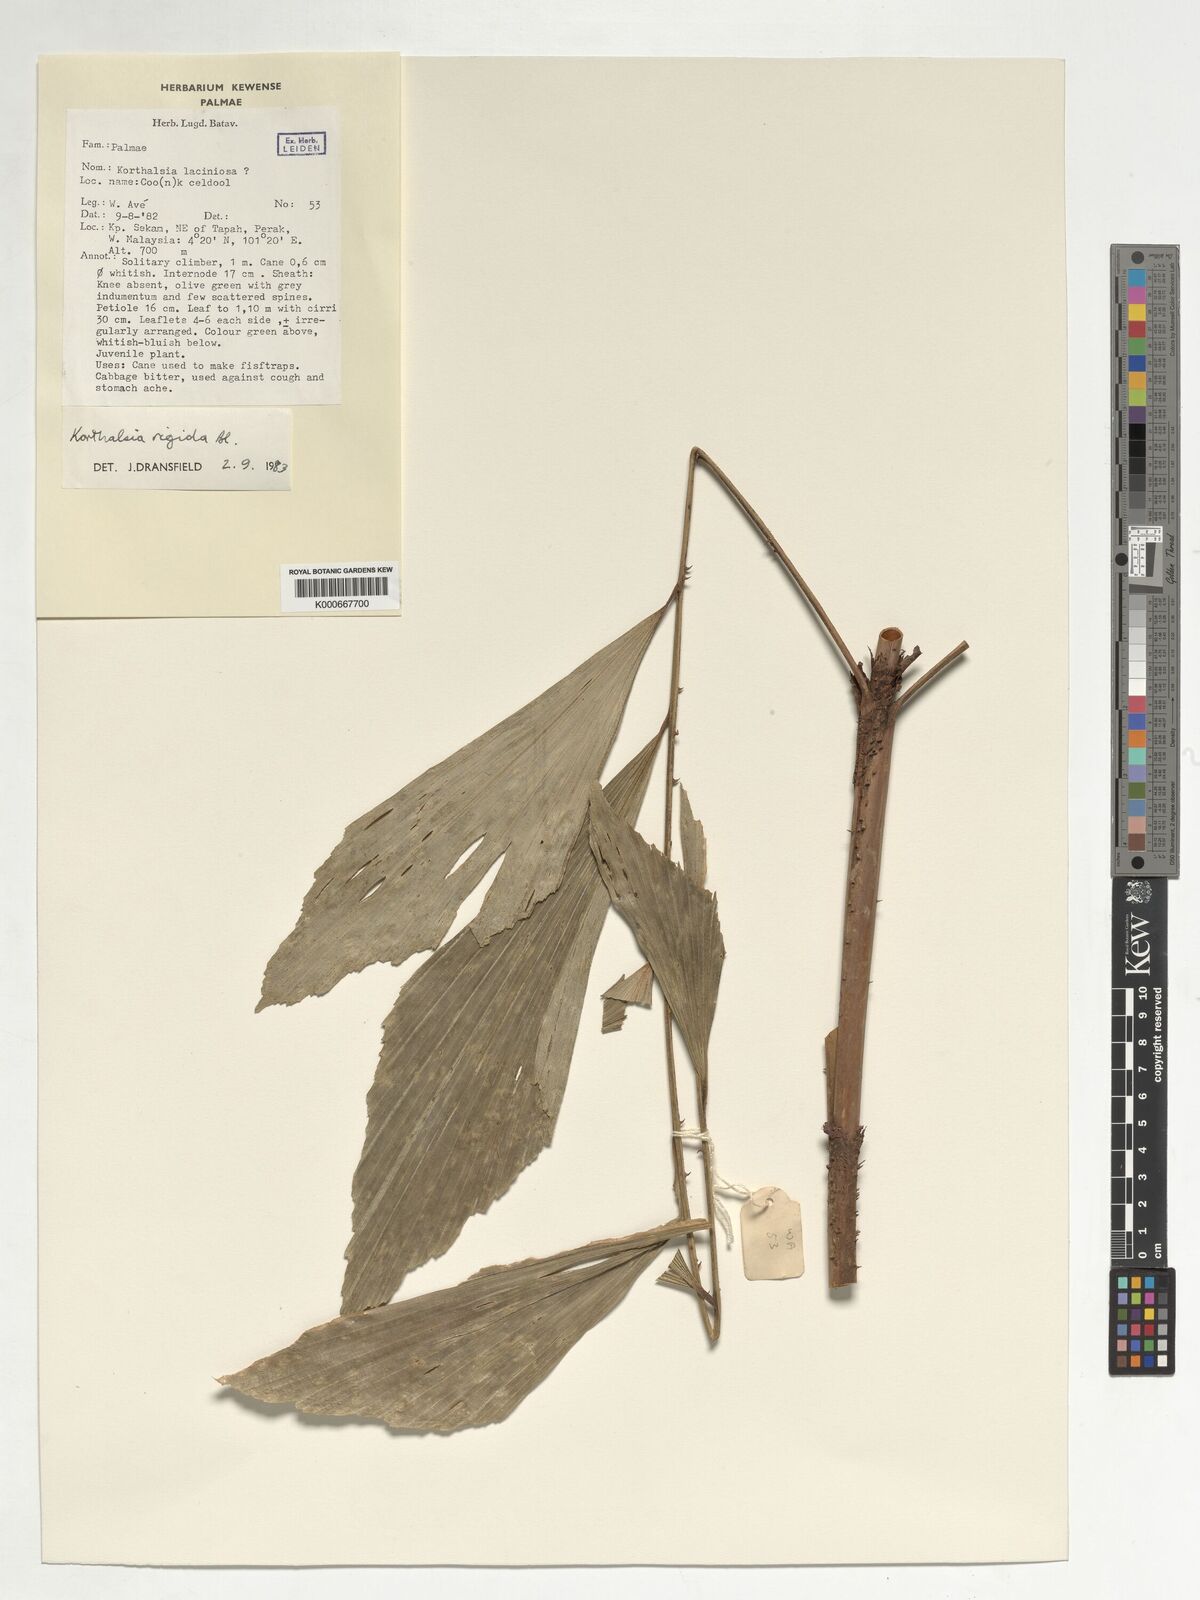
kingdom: Plantae
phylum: Tracheophyta
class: Liliopsida
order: Arecales
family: Arecaceae
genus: Korthalsia
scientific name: Korthalsia rigida
